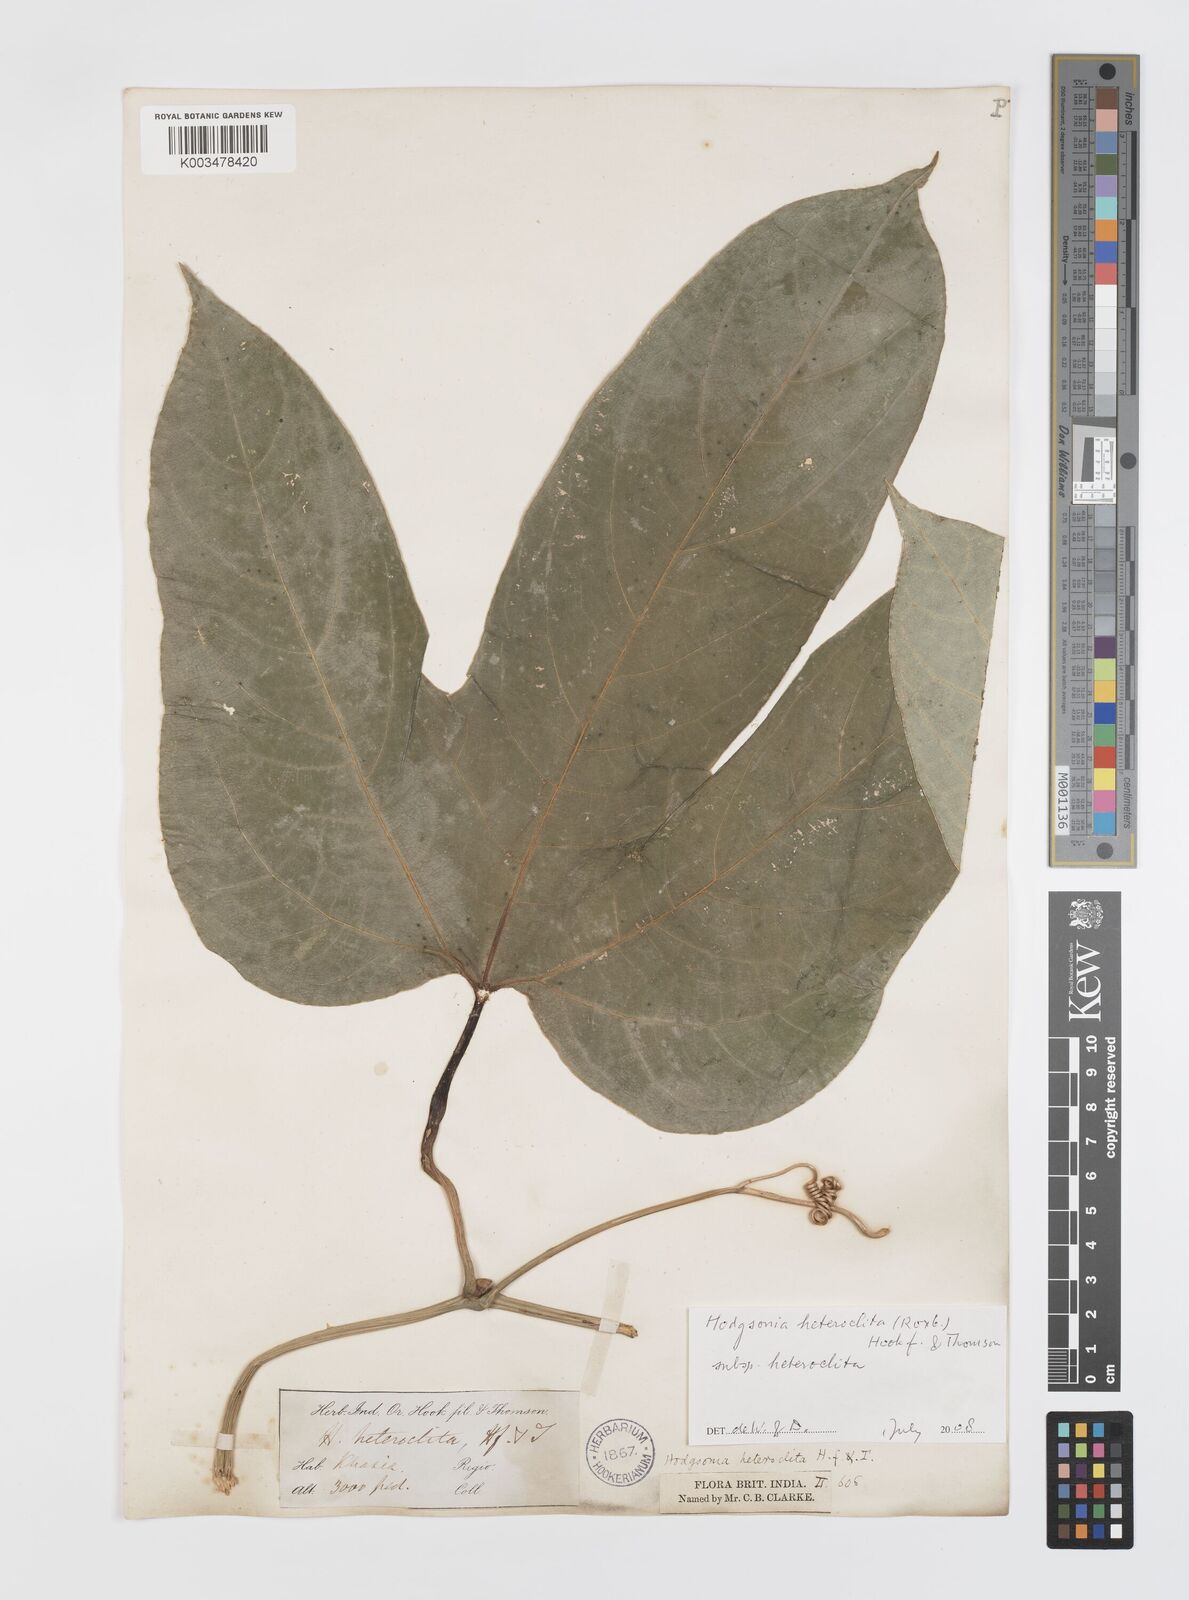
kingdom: Plantae
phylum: Tracheophyta
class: Magnoliopsida
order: Cucurbitales
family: Cucurbitaceae
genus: Hodgsonia
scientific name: Hodgsonia macrocarpa
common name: Chinese lardfruit
